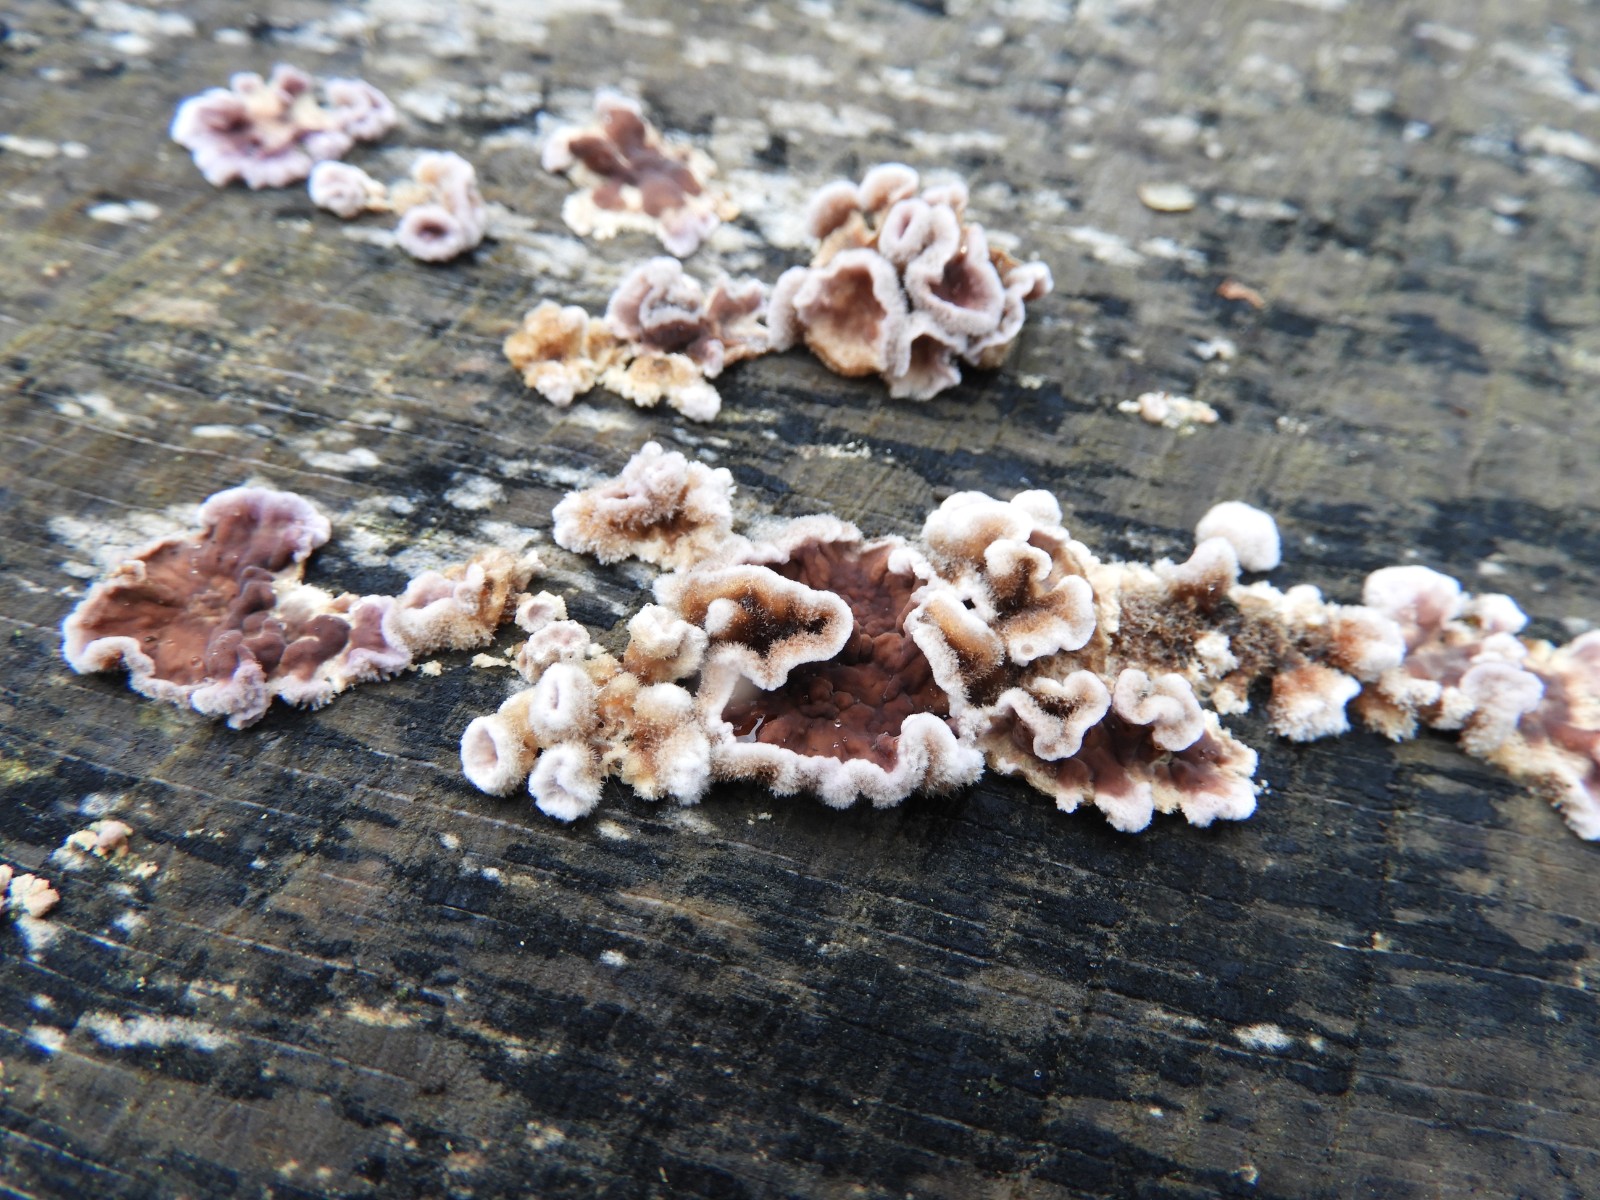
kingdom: Fungi
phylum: Basidiomycota
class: Agaricomycetes
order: Agaricales
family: Cyphellaceae
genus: Chondrostereum
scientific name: Chondrostereum purpureum
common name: purpurlædersvamp
